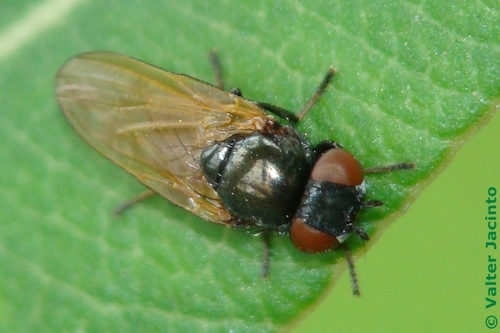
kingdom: Animalia
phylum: Arthropoda
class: Insecta
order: Diptera
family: Lonchaeidae
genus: Lamprolonchaea
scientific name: Lamprolonchaea smaragdi
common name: Lance fly
